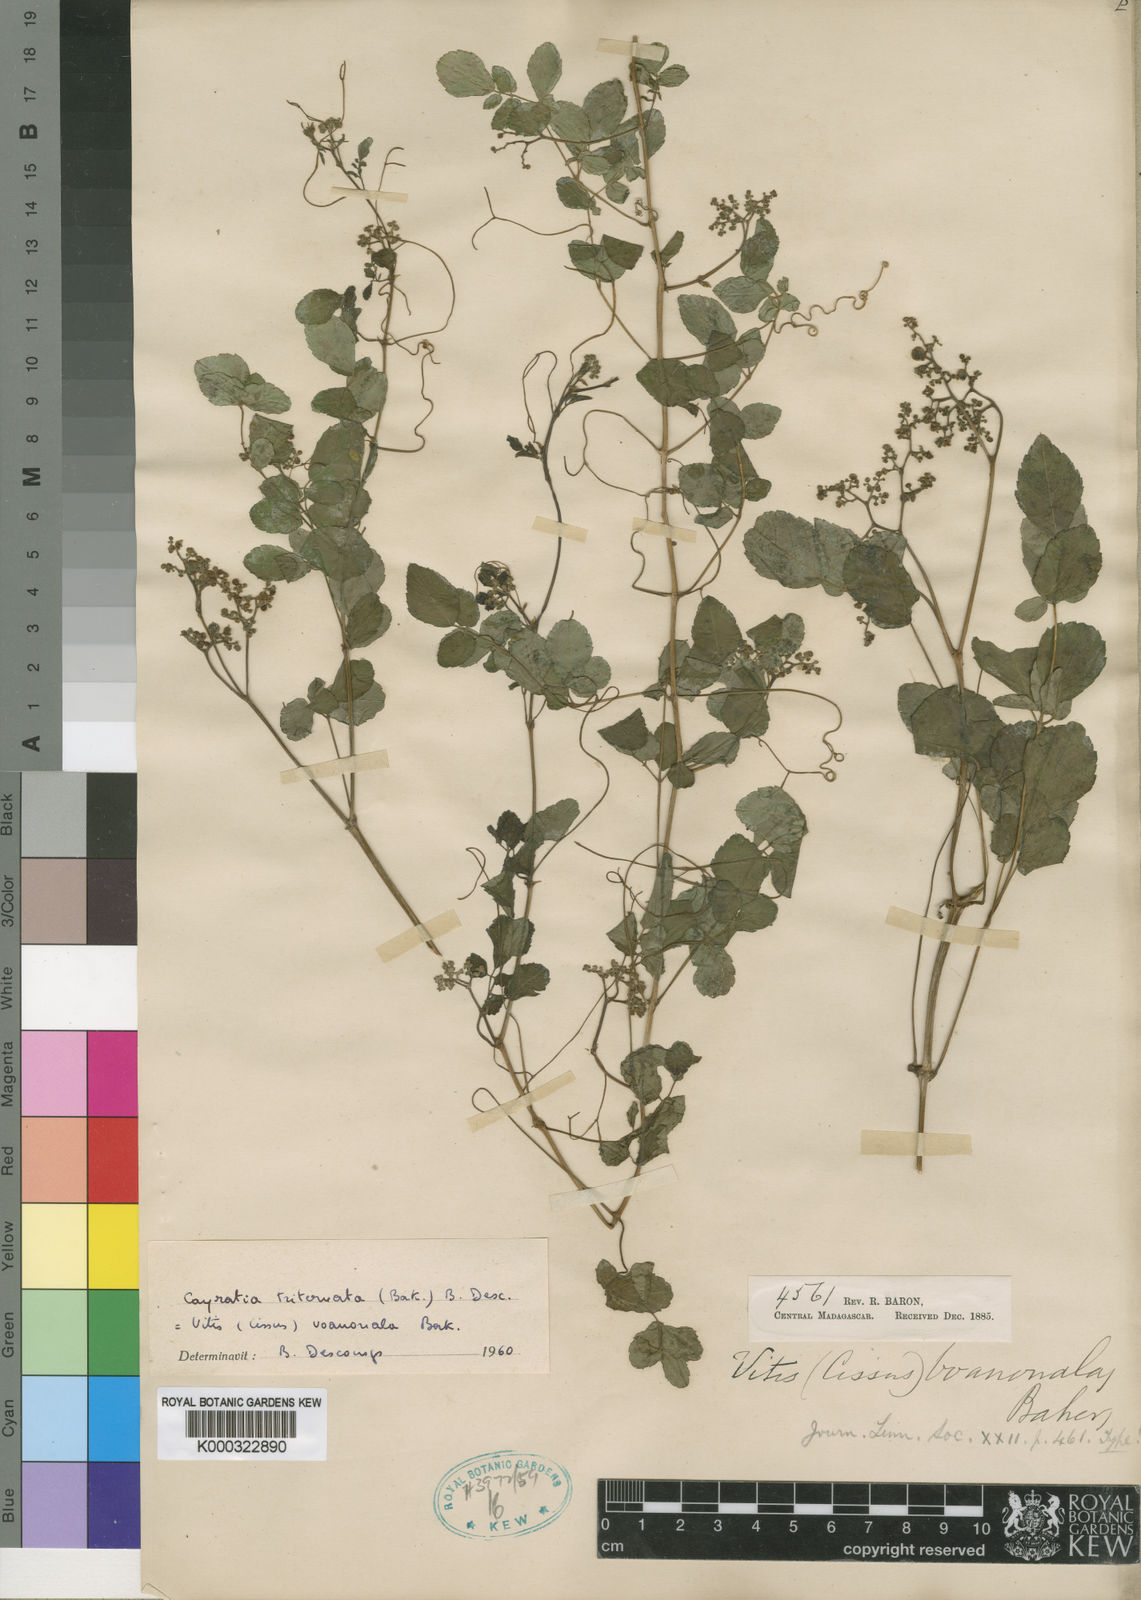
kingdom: Plantae
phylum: Tracheophyta
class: Magnoliopsida
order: Vitales
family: Vitaceae
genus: Afrocayratia
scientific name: Afrocayratia triternata
